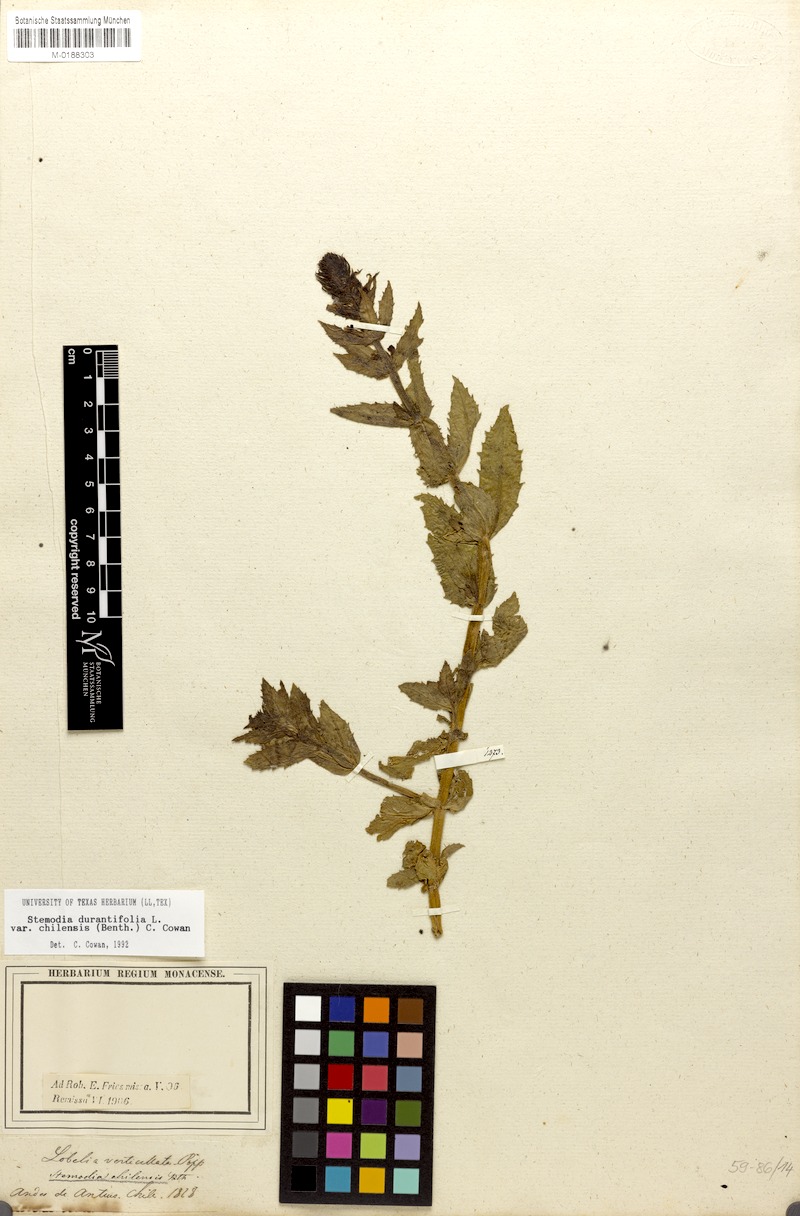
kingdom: Plantae
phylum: Tracheophyta
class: Magnoliopsida
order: Lamiales
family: Plantaginaceae
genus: Stemodia
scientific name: Stemodia durantifolia
